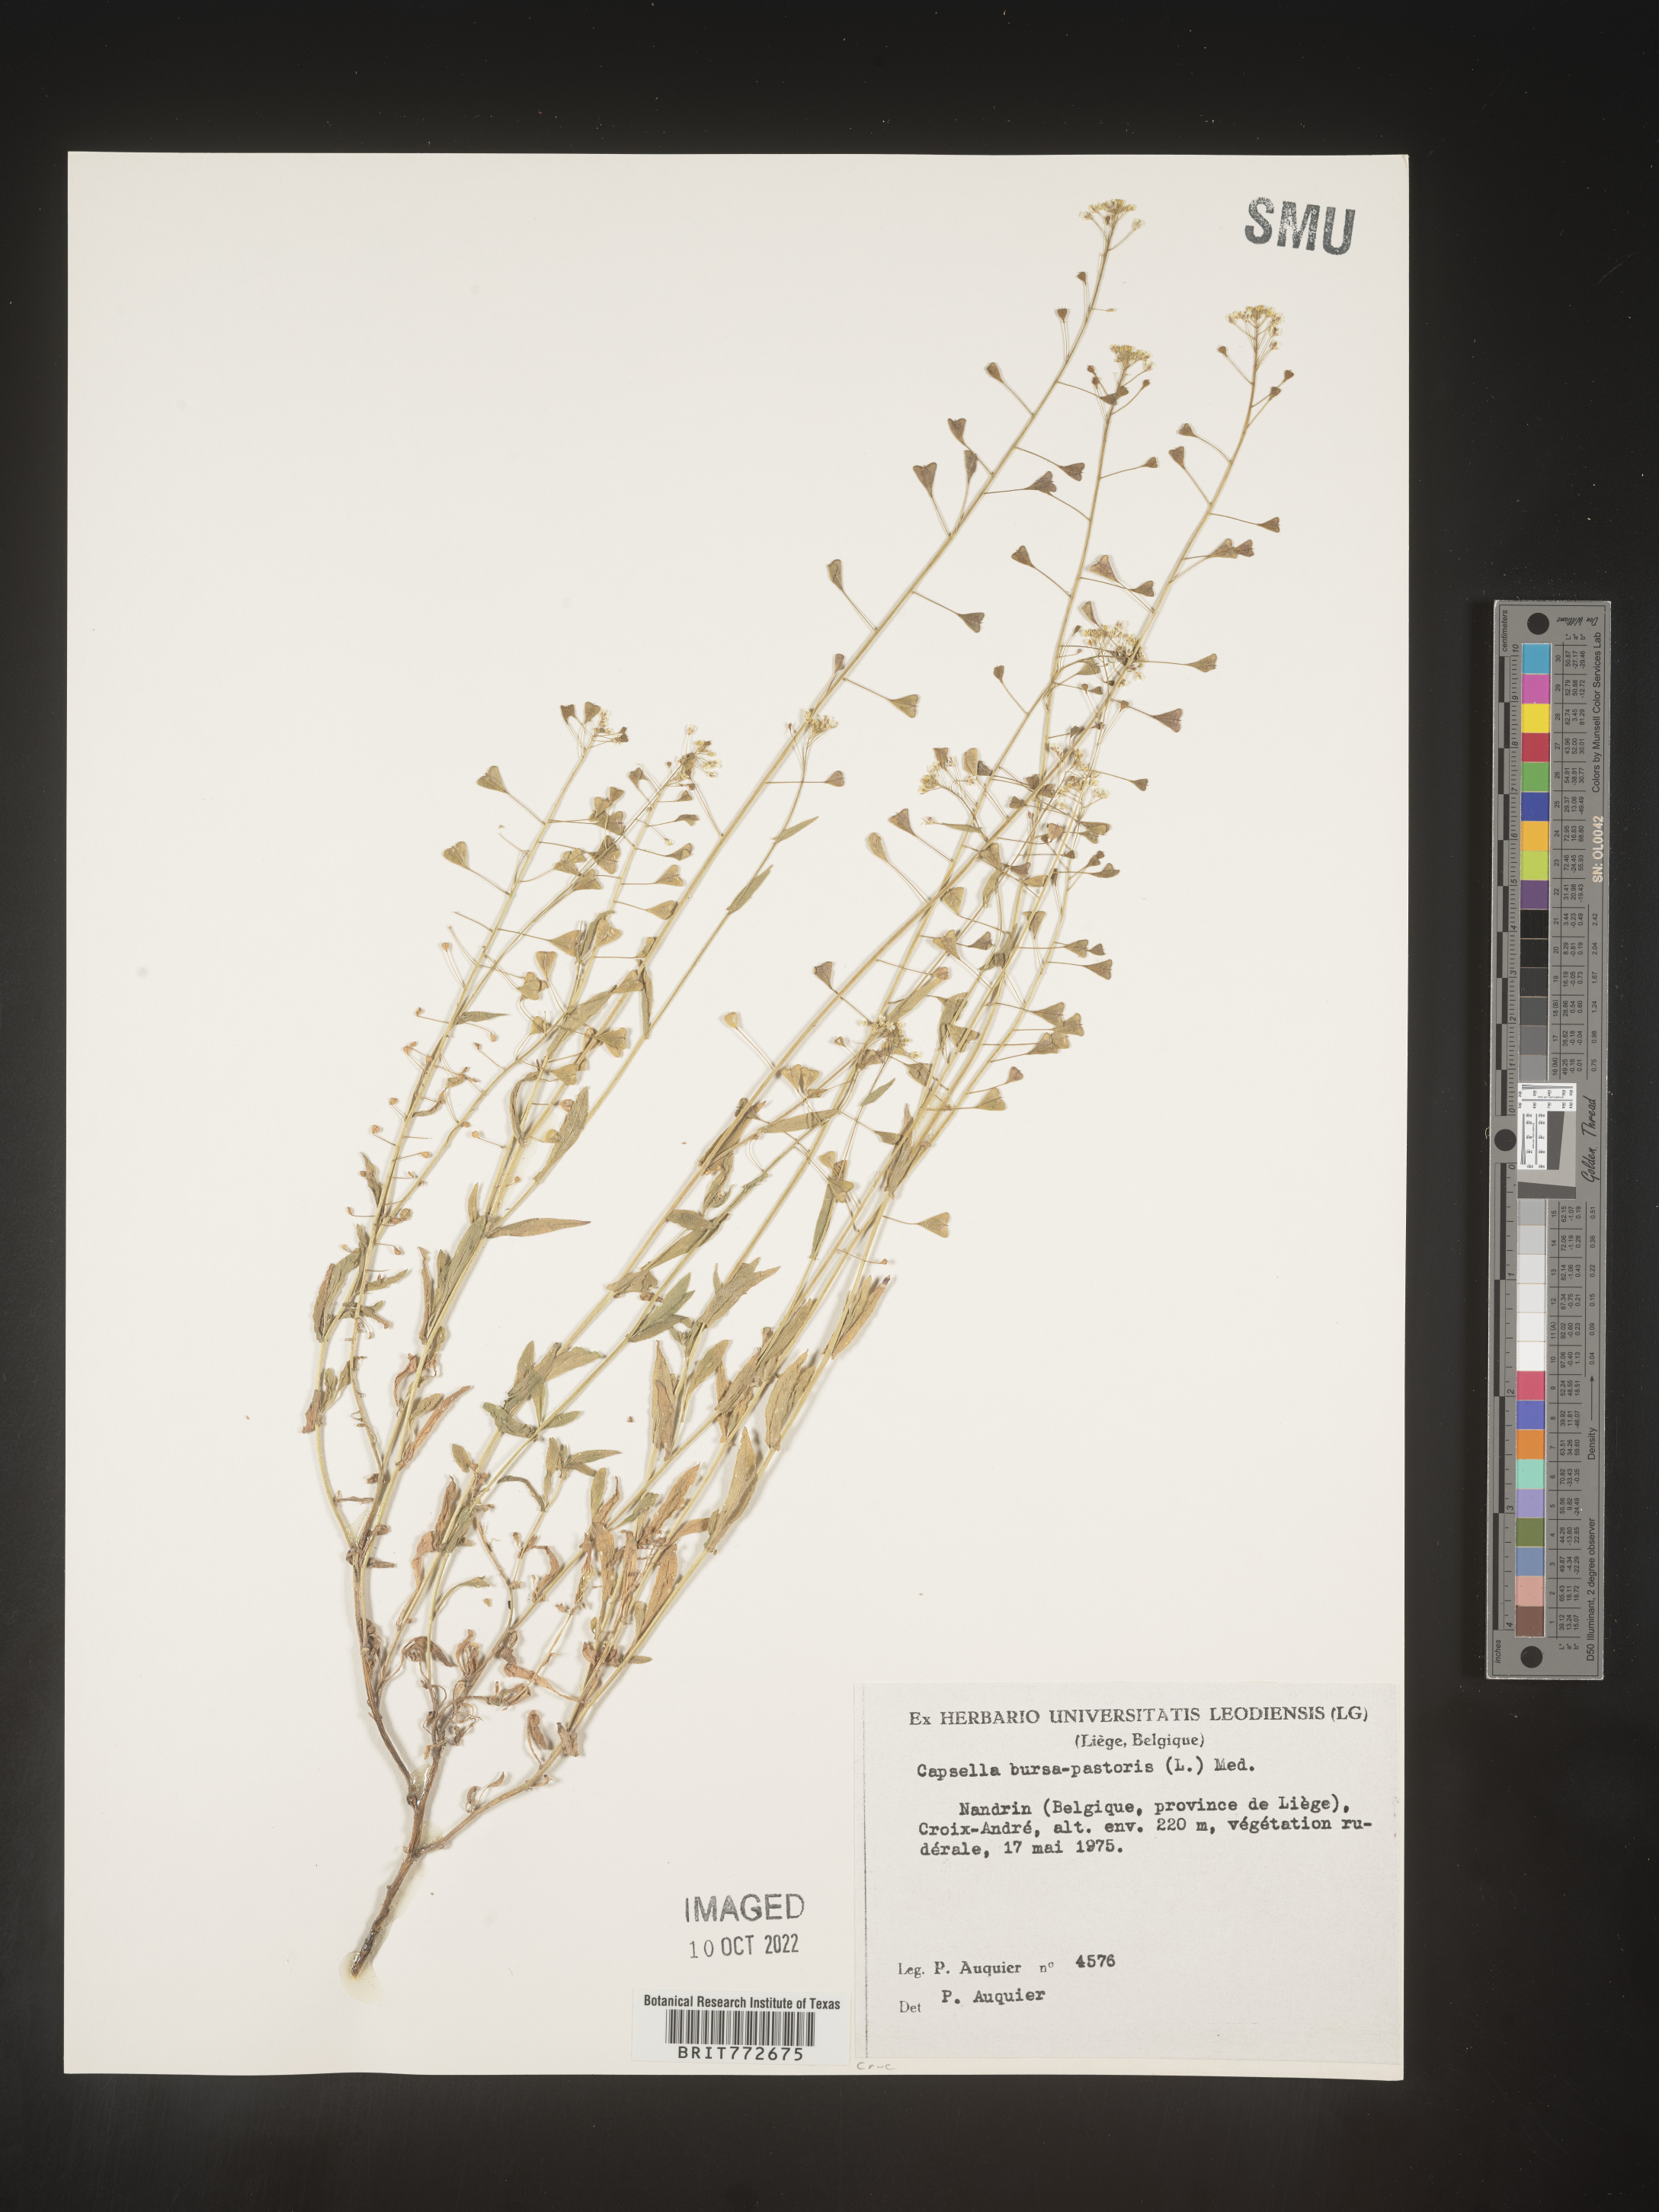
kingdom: Plantae
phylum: Tracheophyta
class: Magnoliopsida
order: Brassicales
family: Brassicaceae
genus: Capsella
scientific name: Capsella
